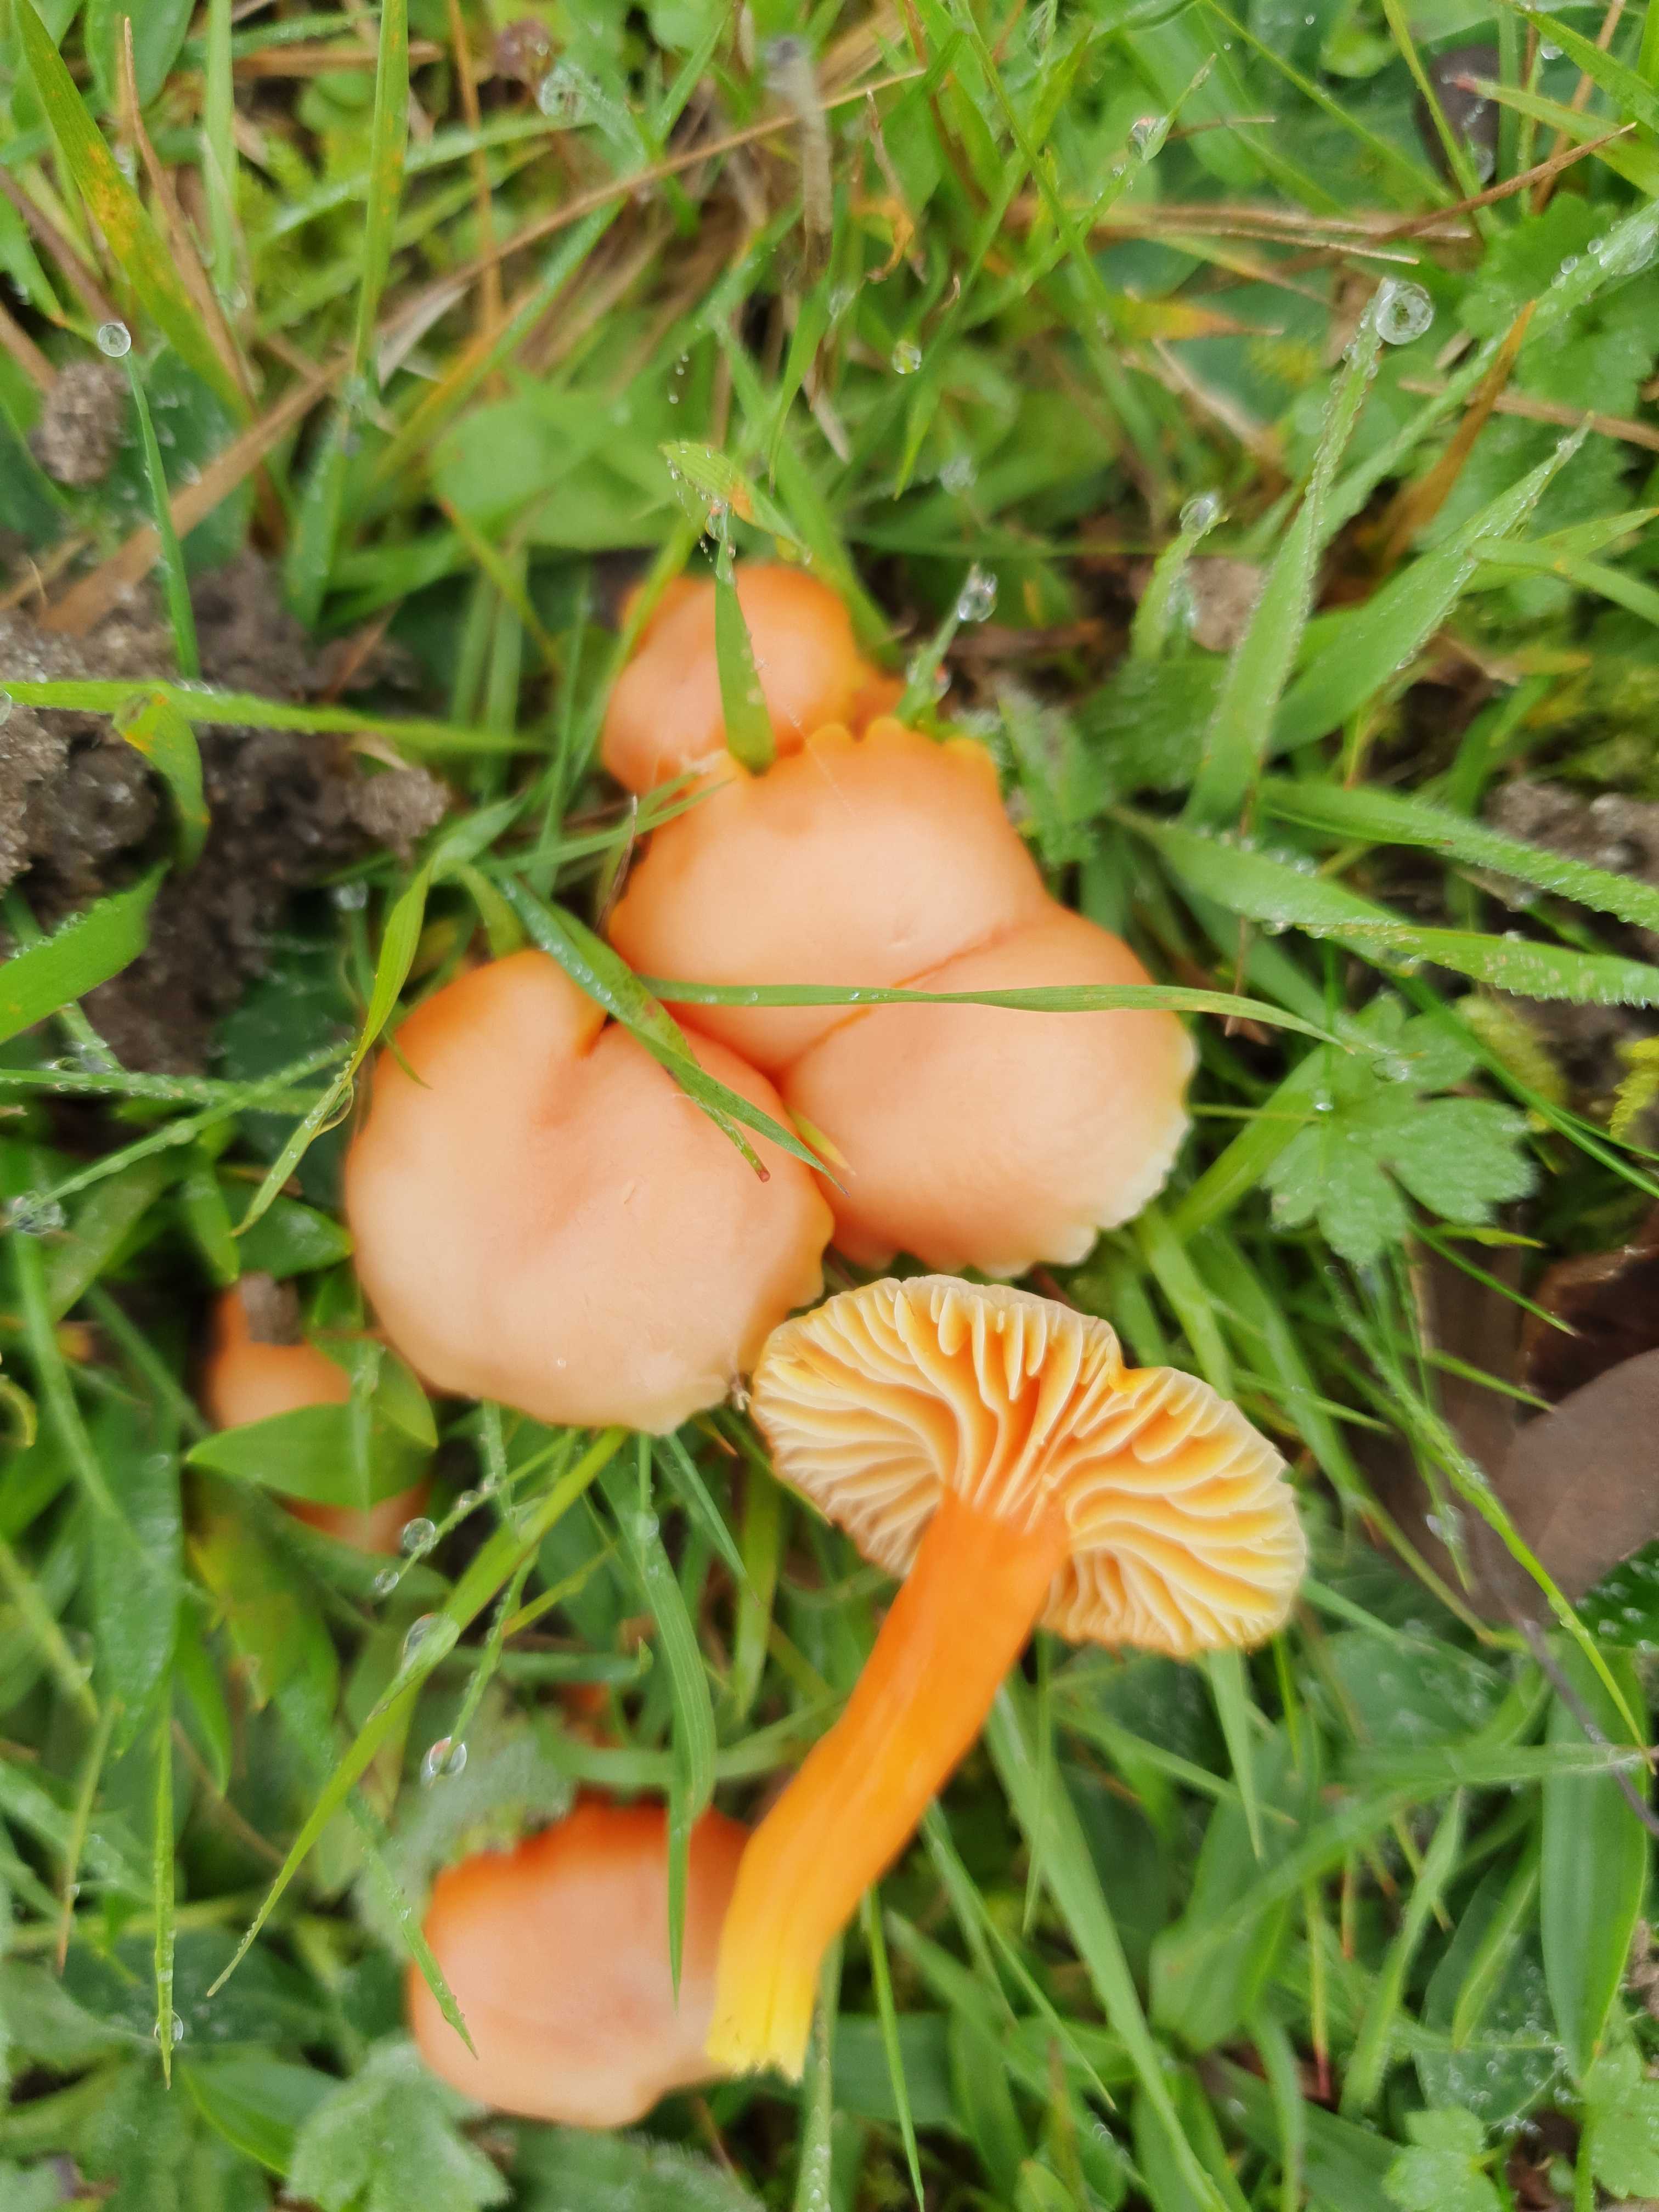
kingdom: Fungi
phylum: Basidiomycota
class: Agaricomycetes
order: Agaricales
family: Hygrophoraceae
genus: Hygrocybe
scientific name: Hygrocybe reidii
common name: honning-vokshat
